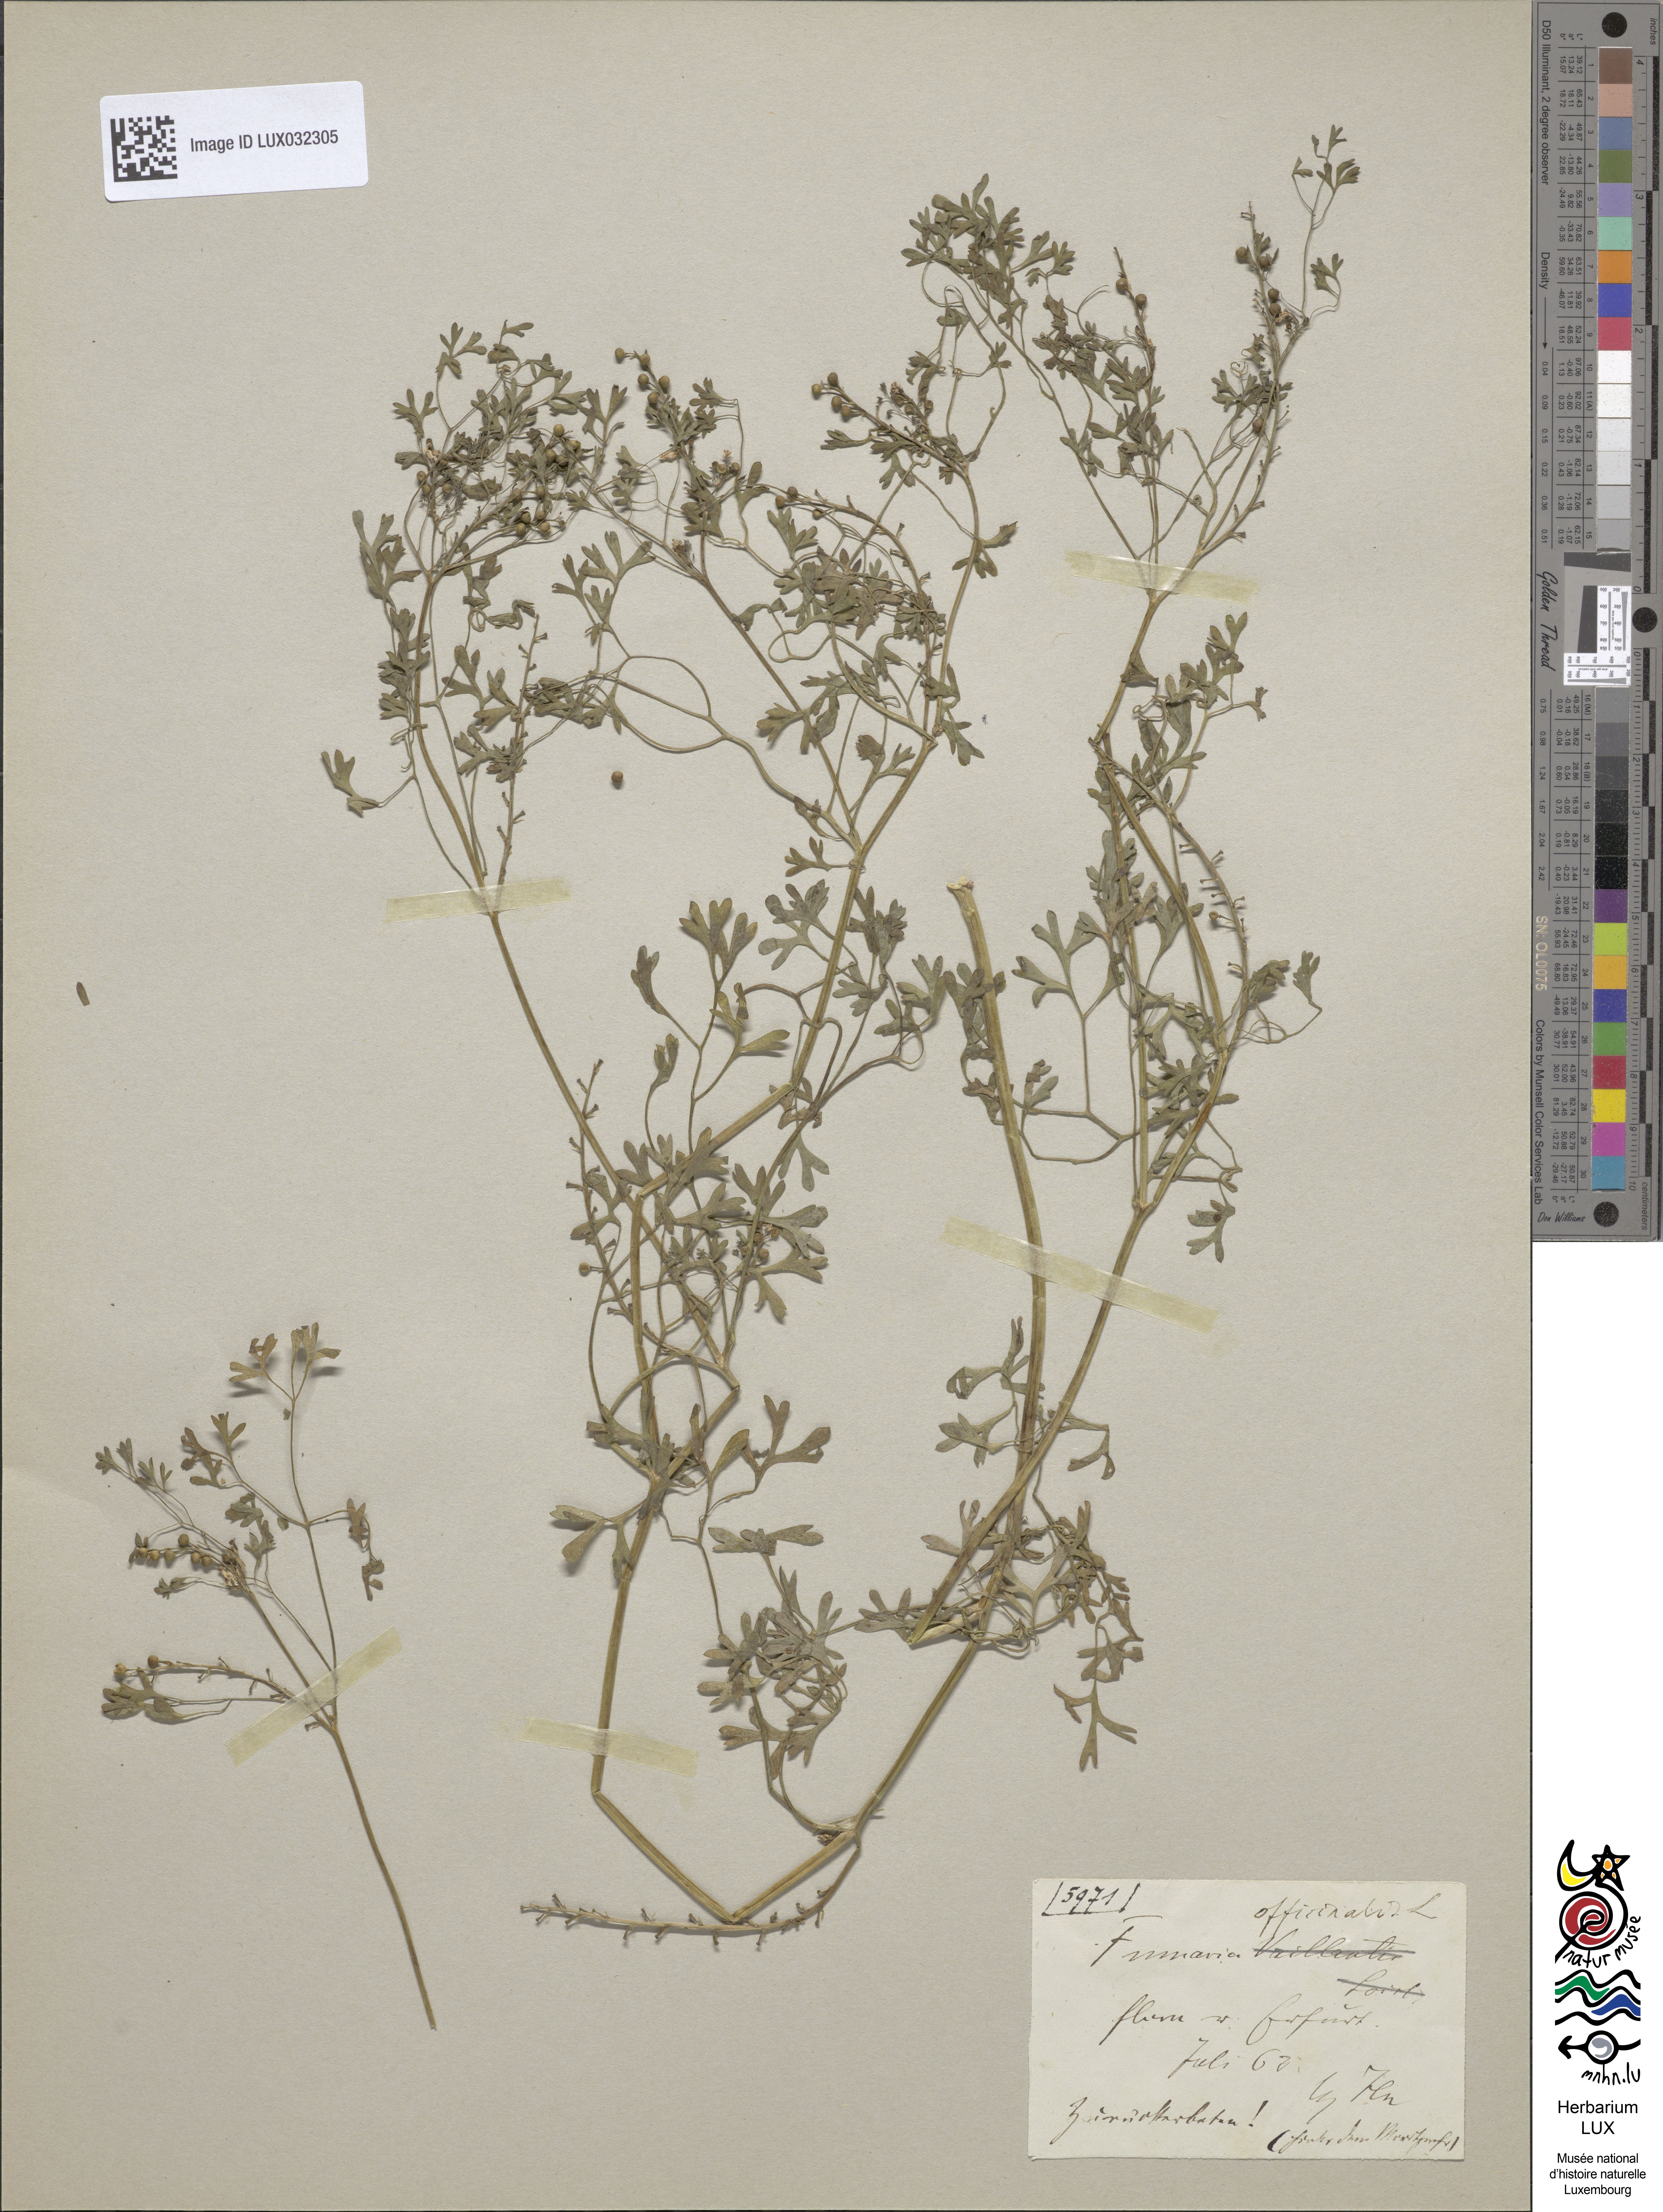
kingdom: Plantae
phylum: Tracheophyta
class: Magnoliopsida
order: Ranunculales
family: Papaveraceae
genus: Fumaria
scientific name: Fumaria officinalis
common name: Common fumitory
